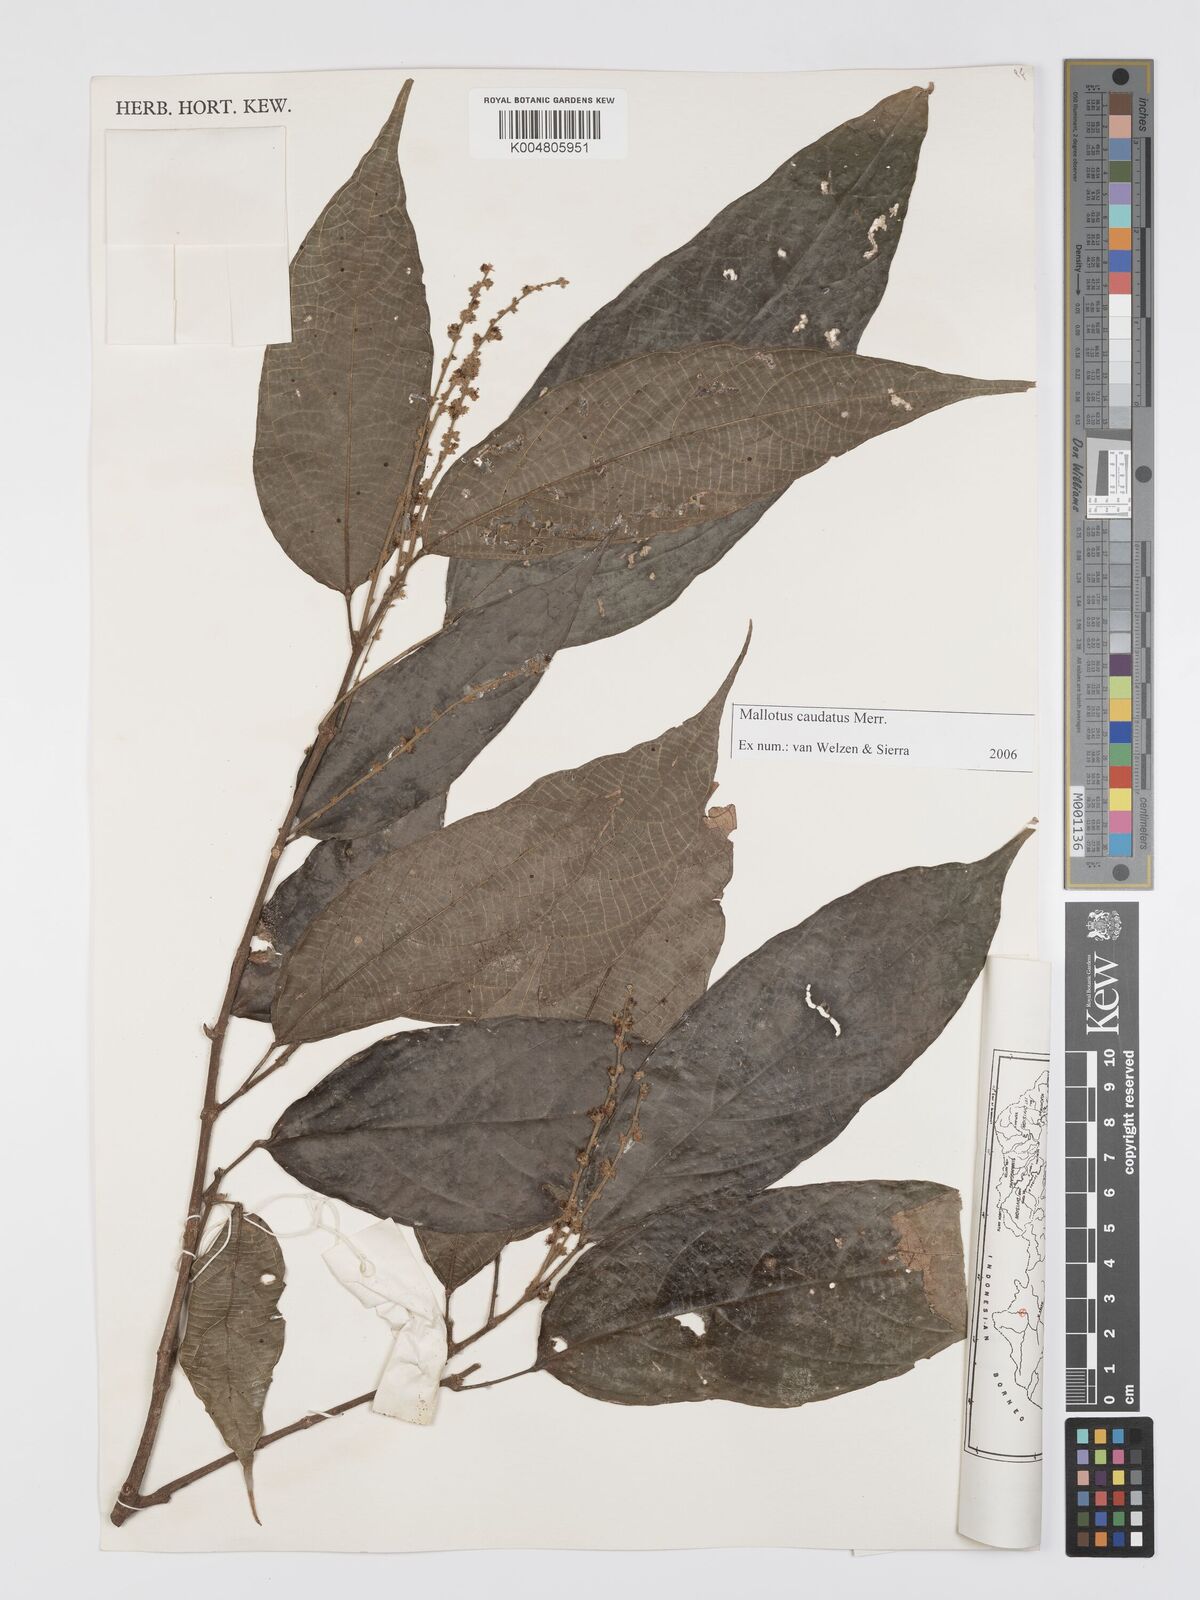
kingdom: Plantae
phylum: Tracheophyta
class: Magnoliopsida
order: Malpighiales
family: Euphorbiaceae
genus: Mallotus
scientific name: Mallotus caudatus
